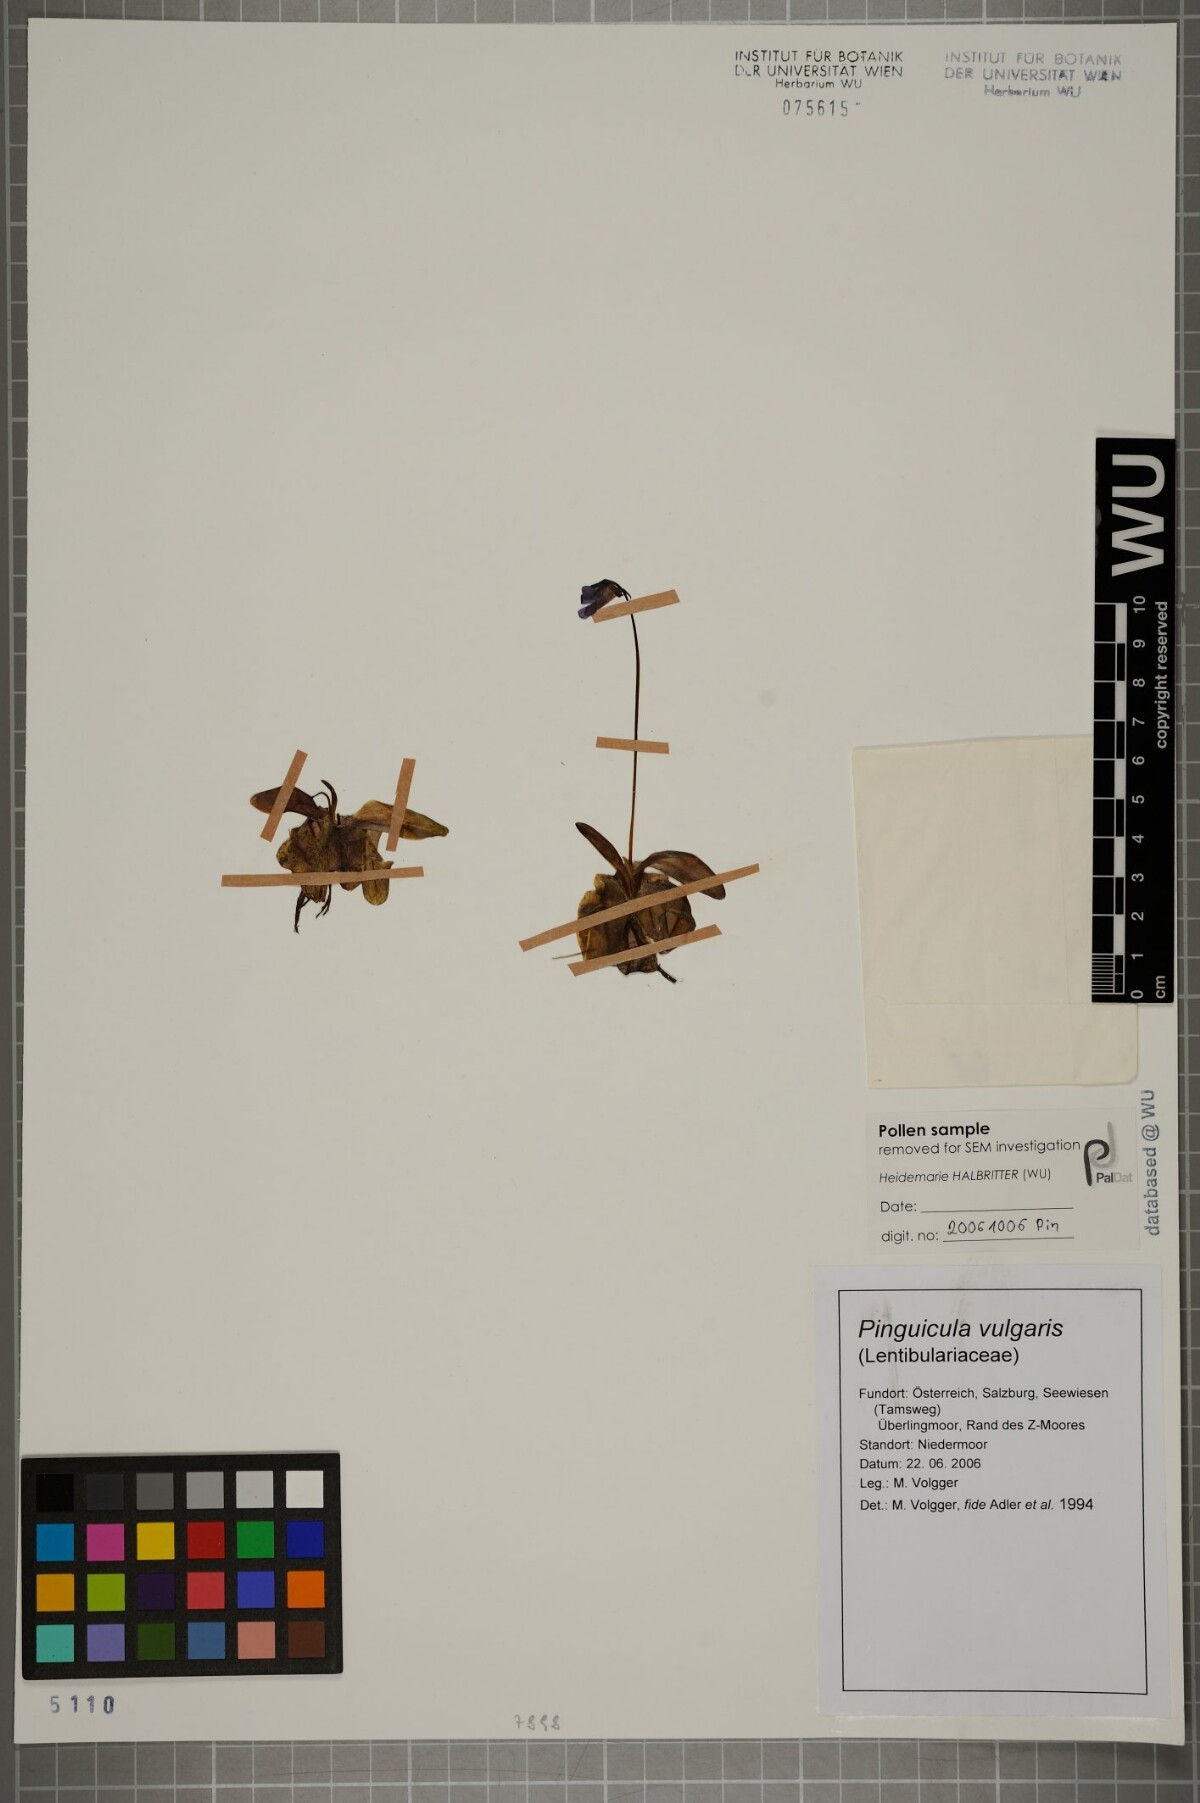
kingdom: Plantae
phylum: Tracheophyta
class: Magnoliopsida
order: Lamiales
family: Lentibulariaceae
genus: Pinguicula
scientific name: Pinguicula vulgaris
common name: Common butterwort
